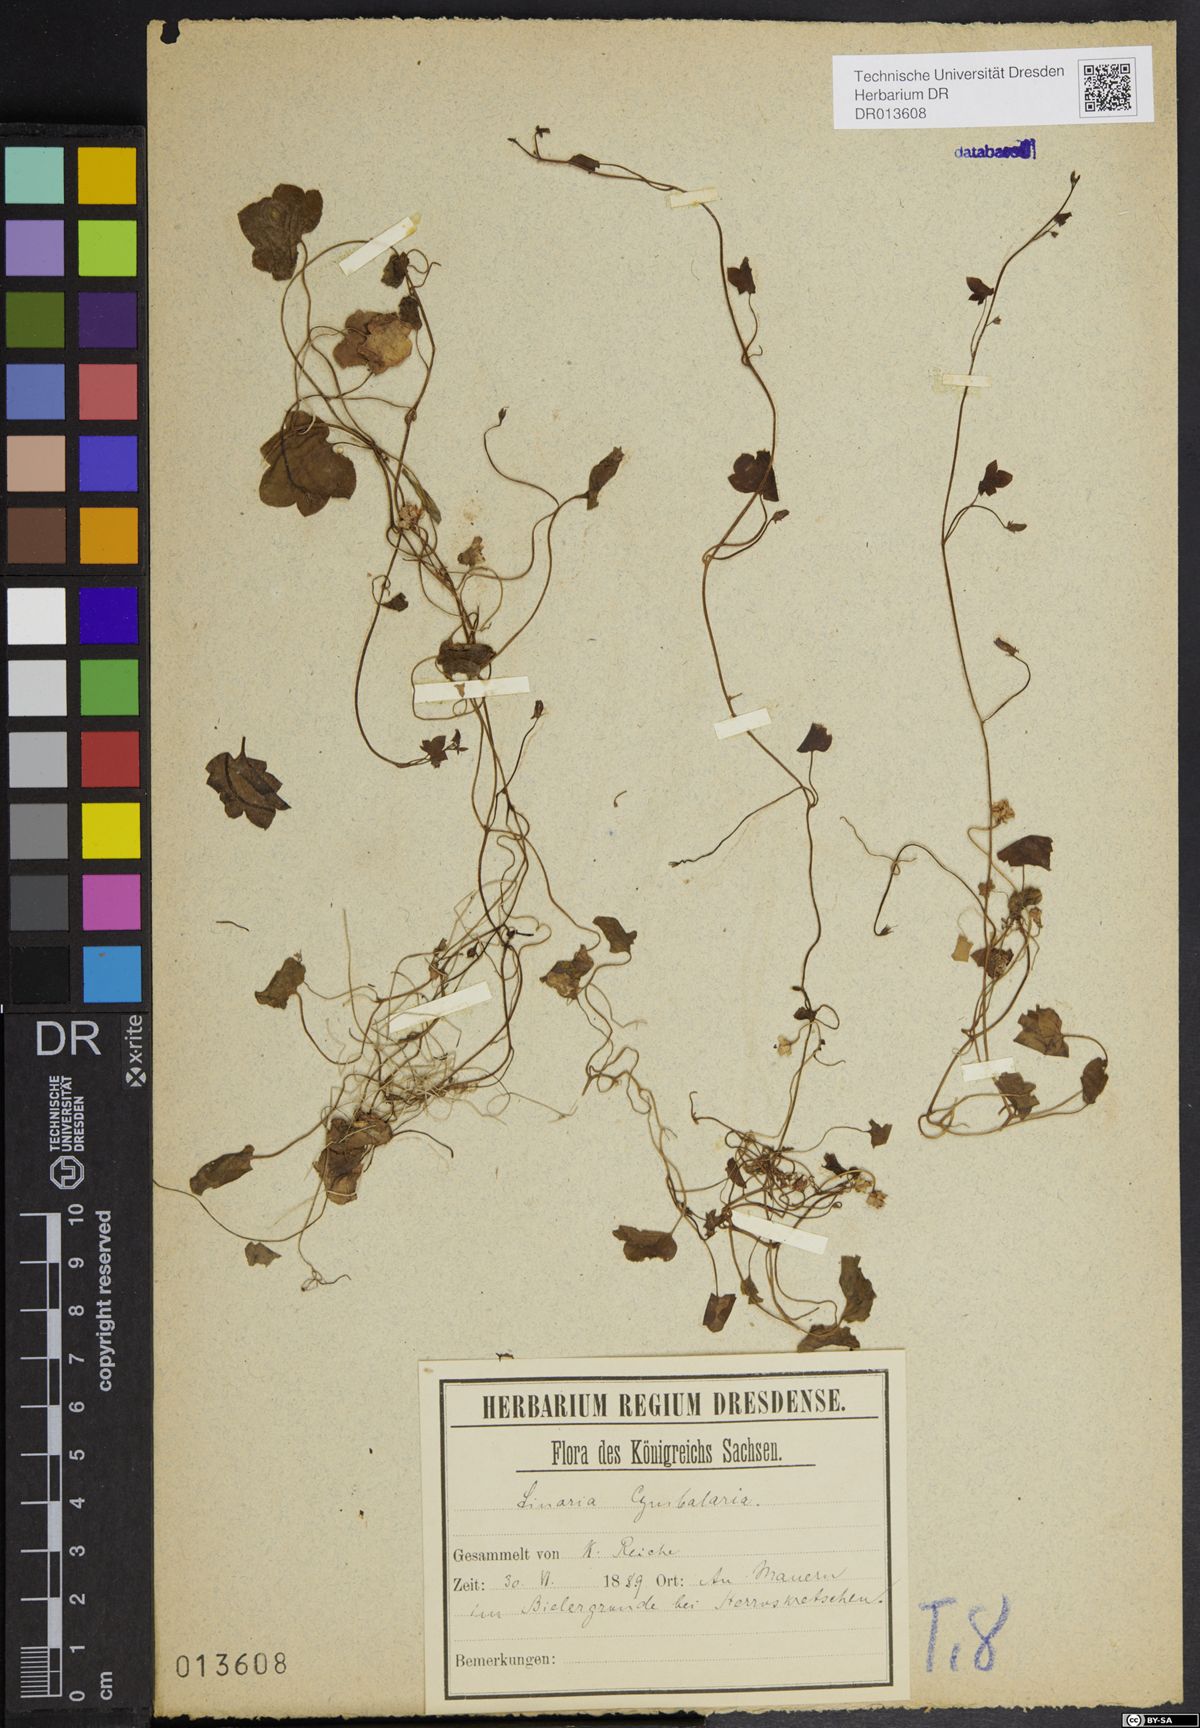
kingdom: Plantae
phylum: Tracheophyta
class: Magnoliopsida
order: Lamiales
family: Plantaginaceae
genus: Cymbalaria
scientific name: Cymbalaria muralis
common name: Ivy-leaved toadflax
